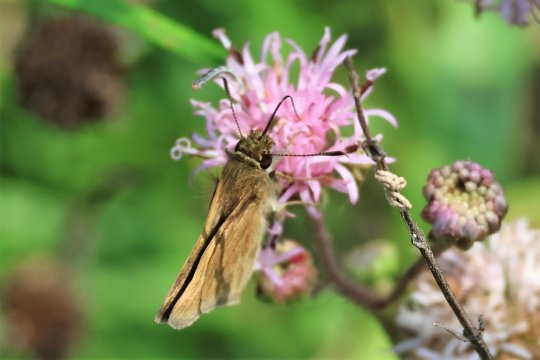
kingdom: Animalia
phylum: Arthropoda
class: Insecta
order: Lepidoptera
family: Hesperiidae
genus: Nastra
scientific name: Nastra julia
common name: Julia's Skipper
